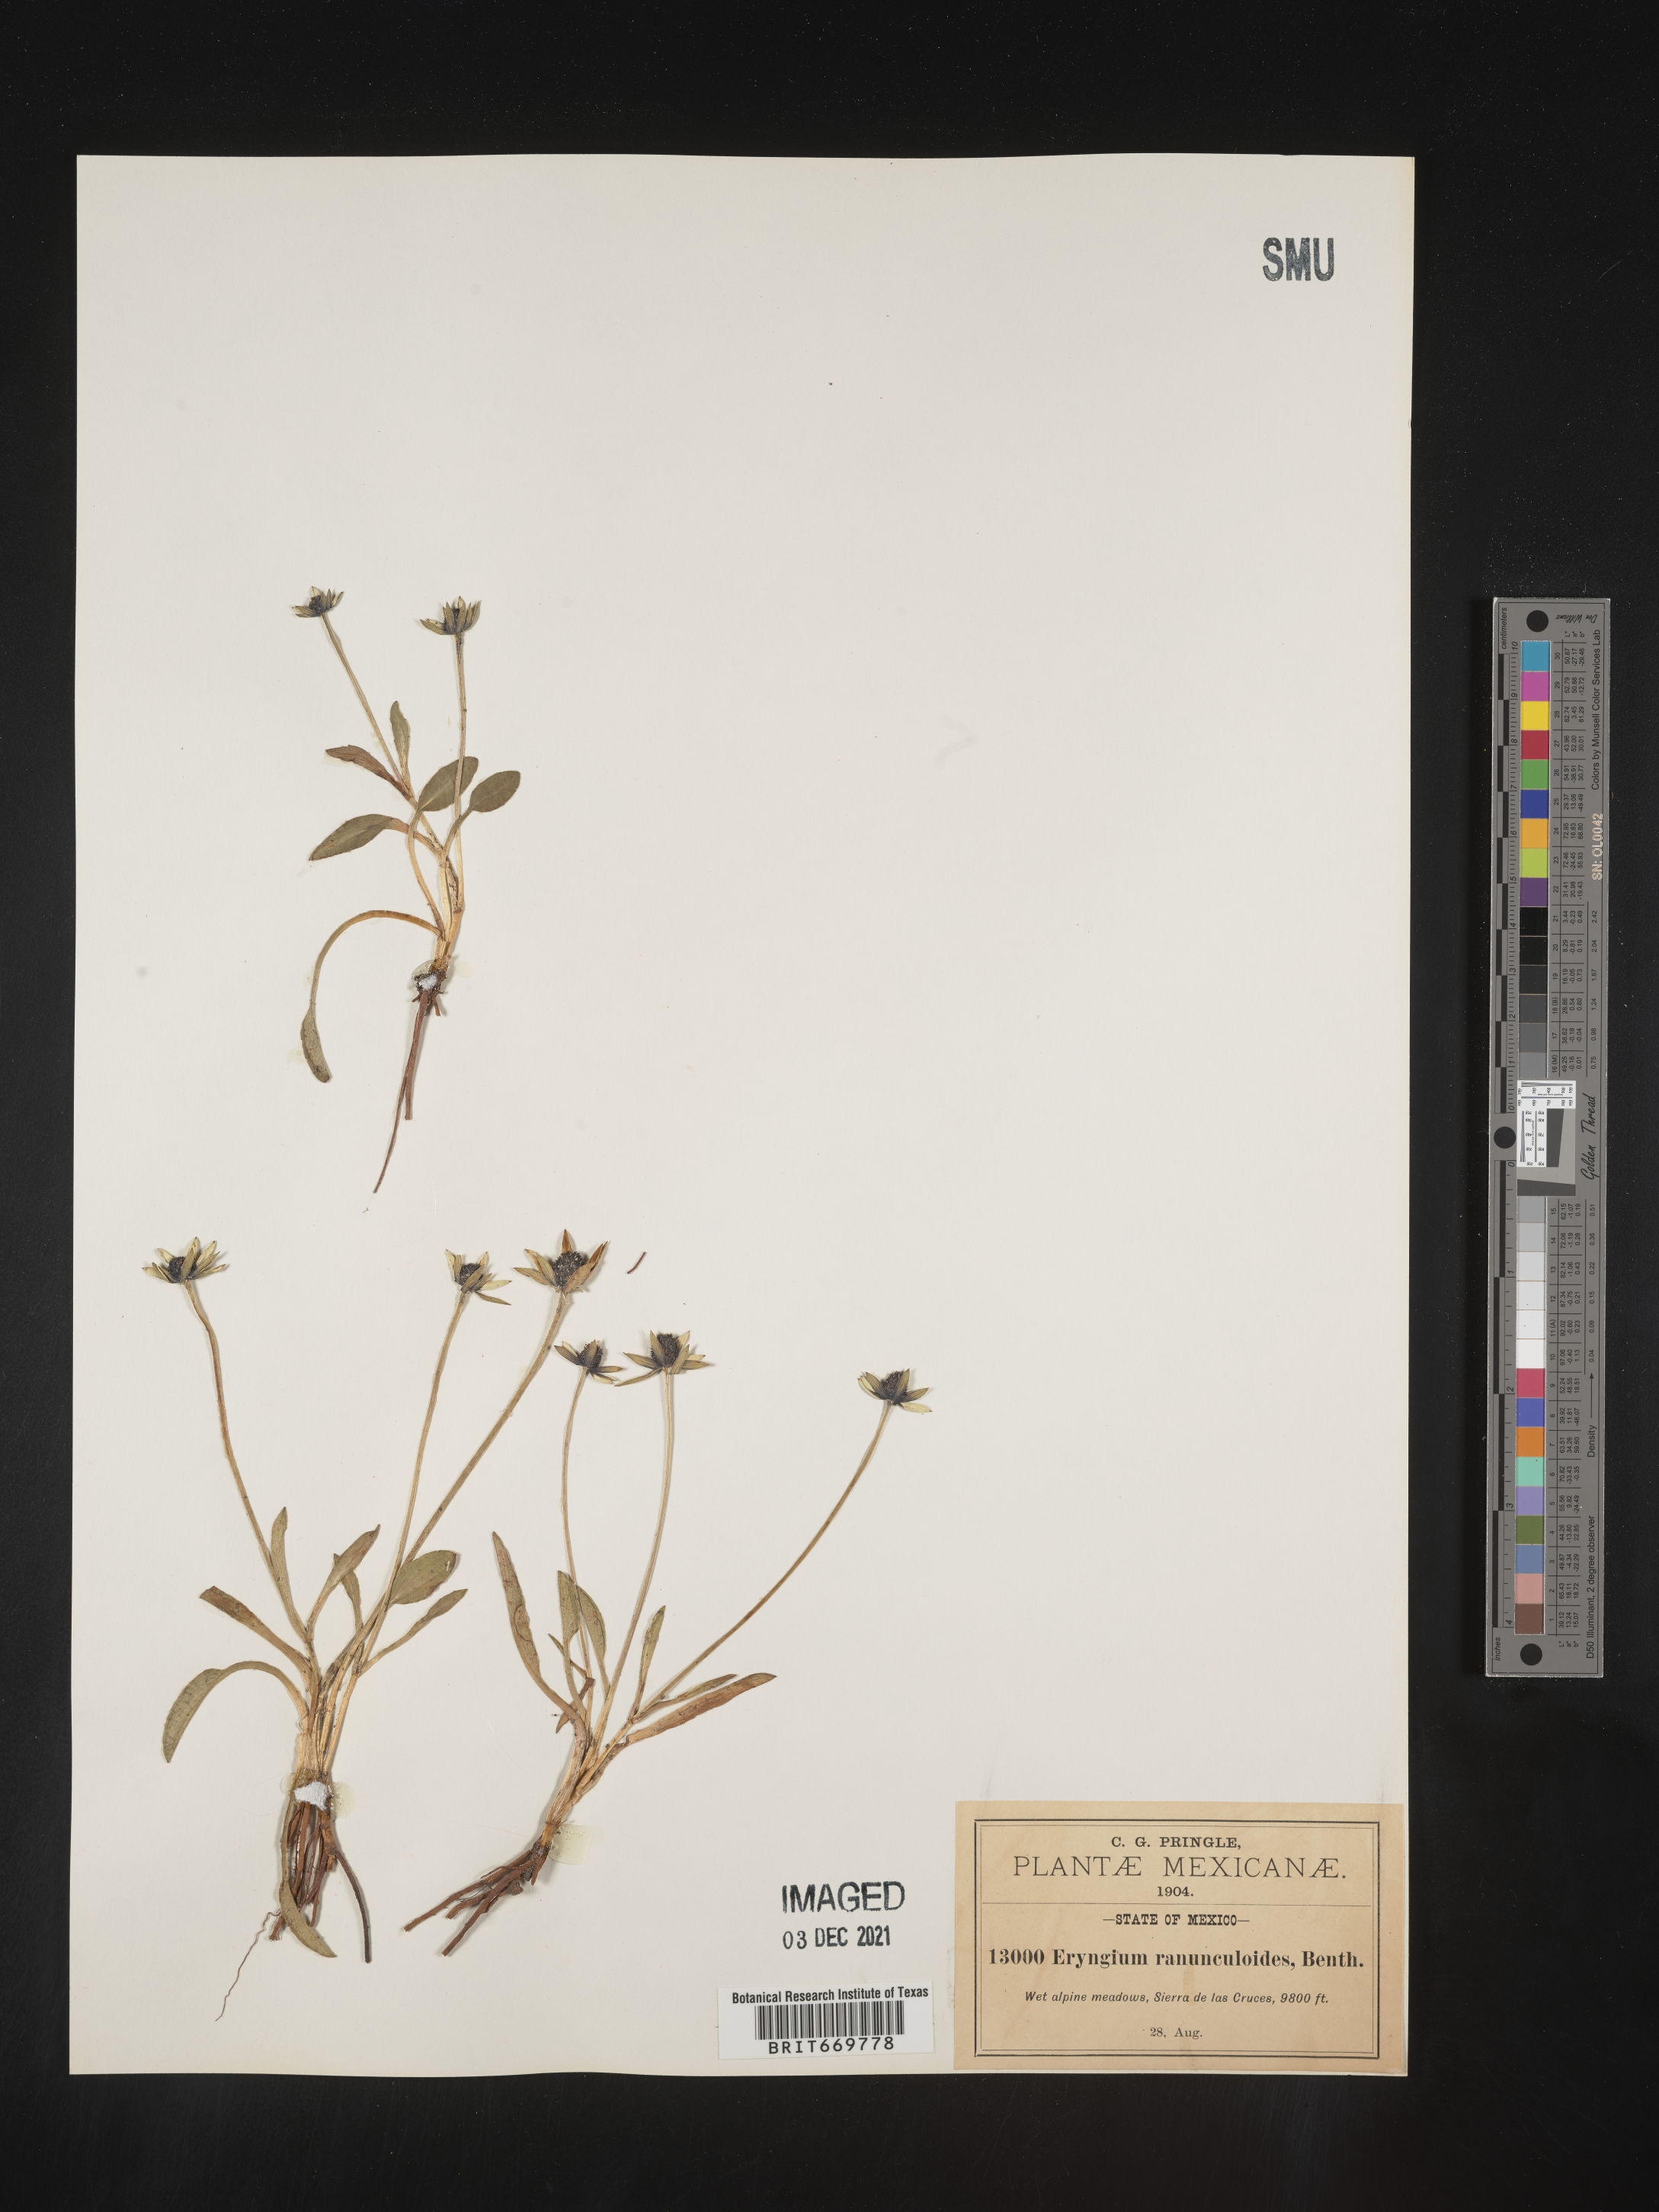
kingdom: Plantae
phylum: Tracheophyta
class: Magnoliopsida
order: Apiales
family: Apiaceae
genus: Eryngium
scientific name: Eryngium
